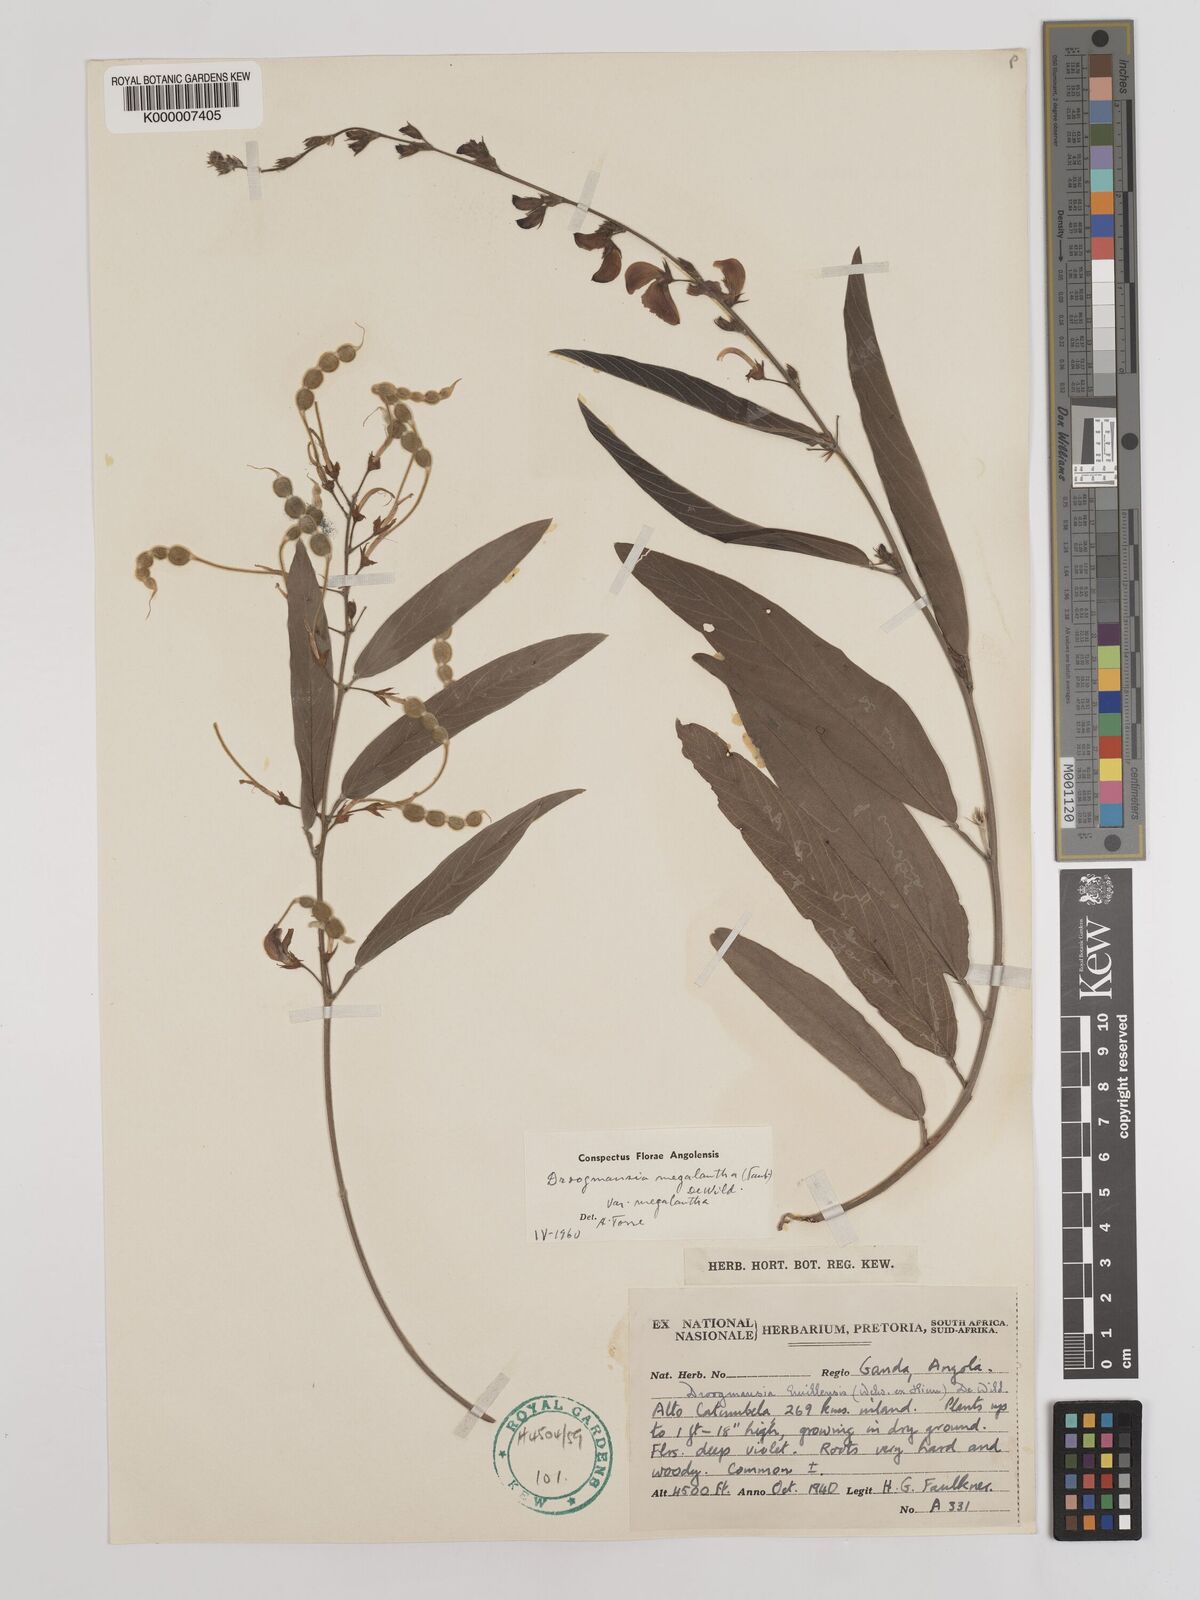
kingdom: Plantae
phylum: Tracheophyta
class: Magnoliopsida
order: Fabales
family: Fabaceae
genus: Droogmansia
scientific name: Droogmansia megalantha
